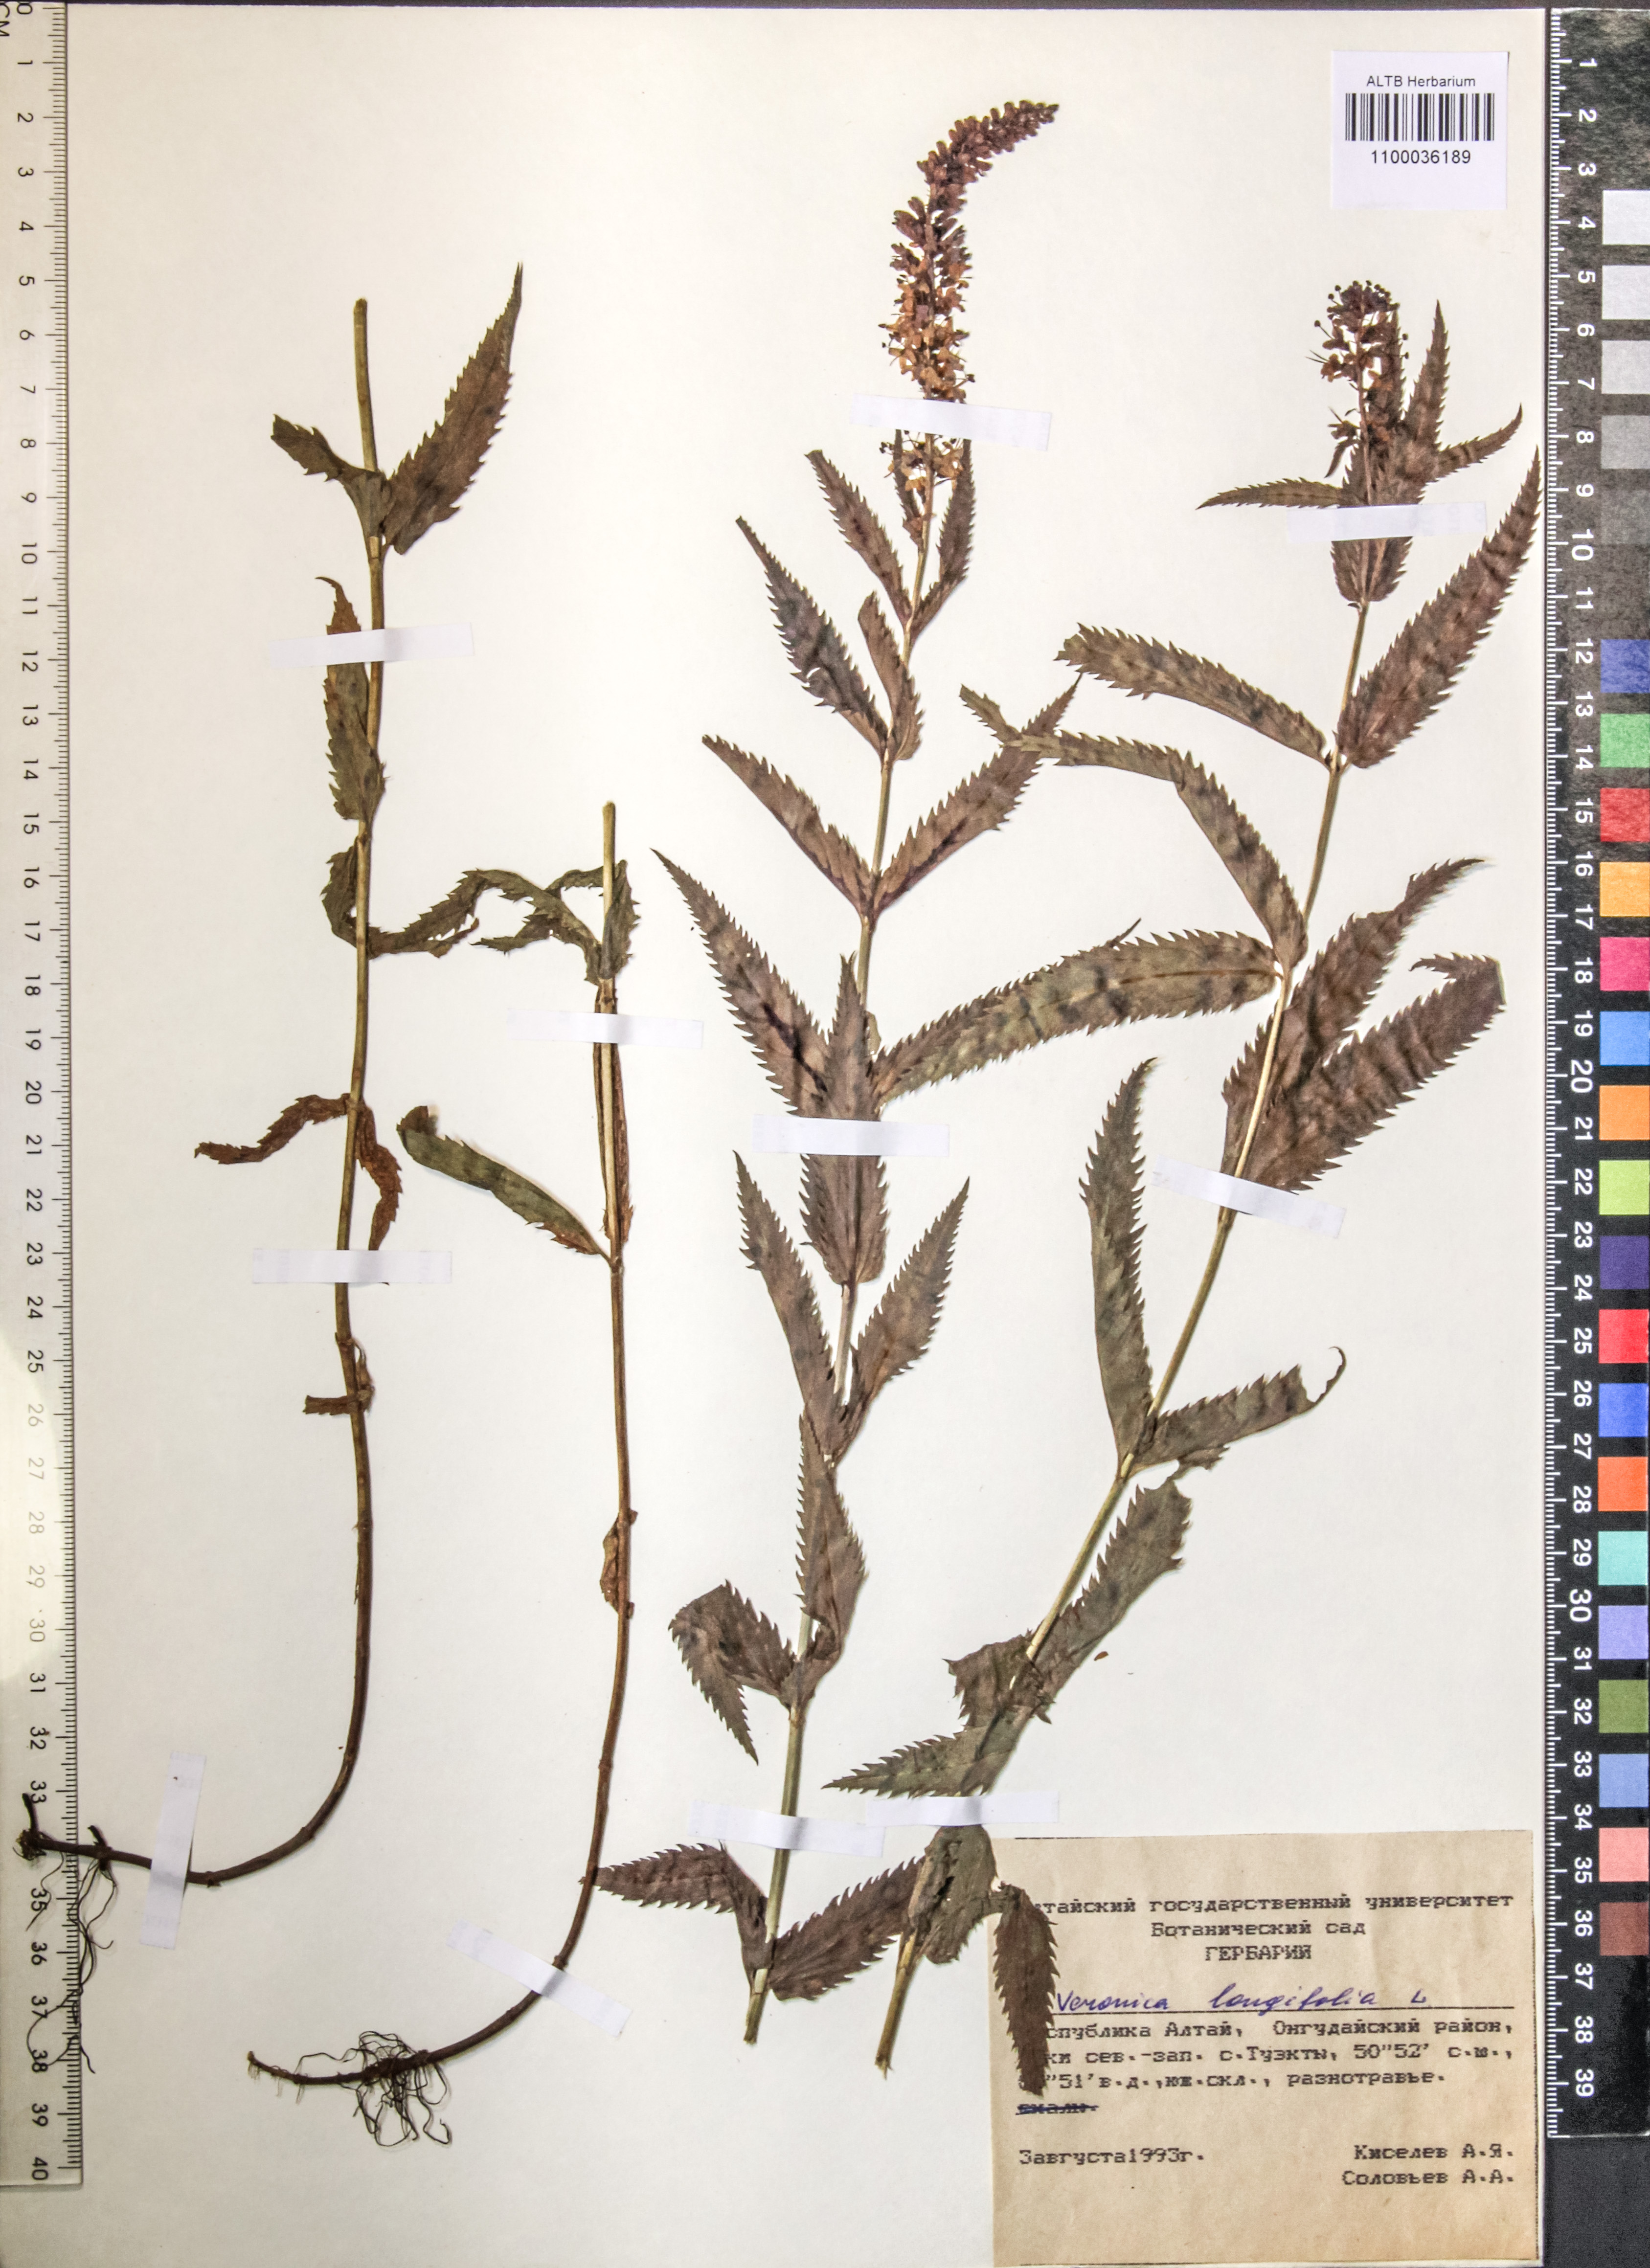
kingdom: Plantae
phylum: Tracheophyta
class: Magnoliopsida
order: Lamiales
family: Plantaginaceae
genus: Veronica
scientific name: Veronica longifolia
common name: Garden speedwell
